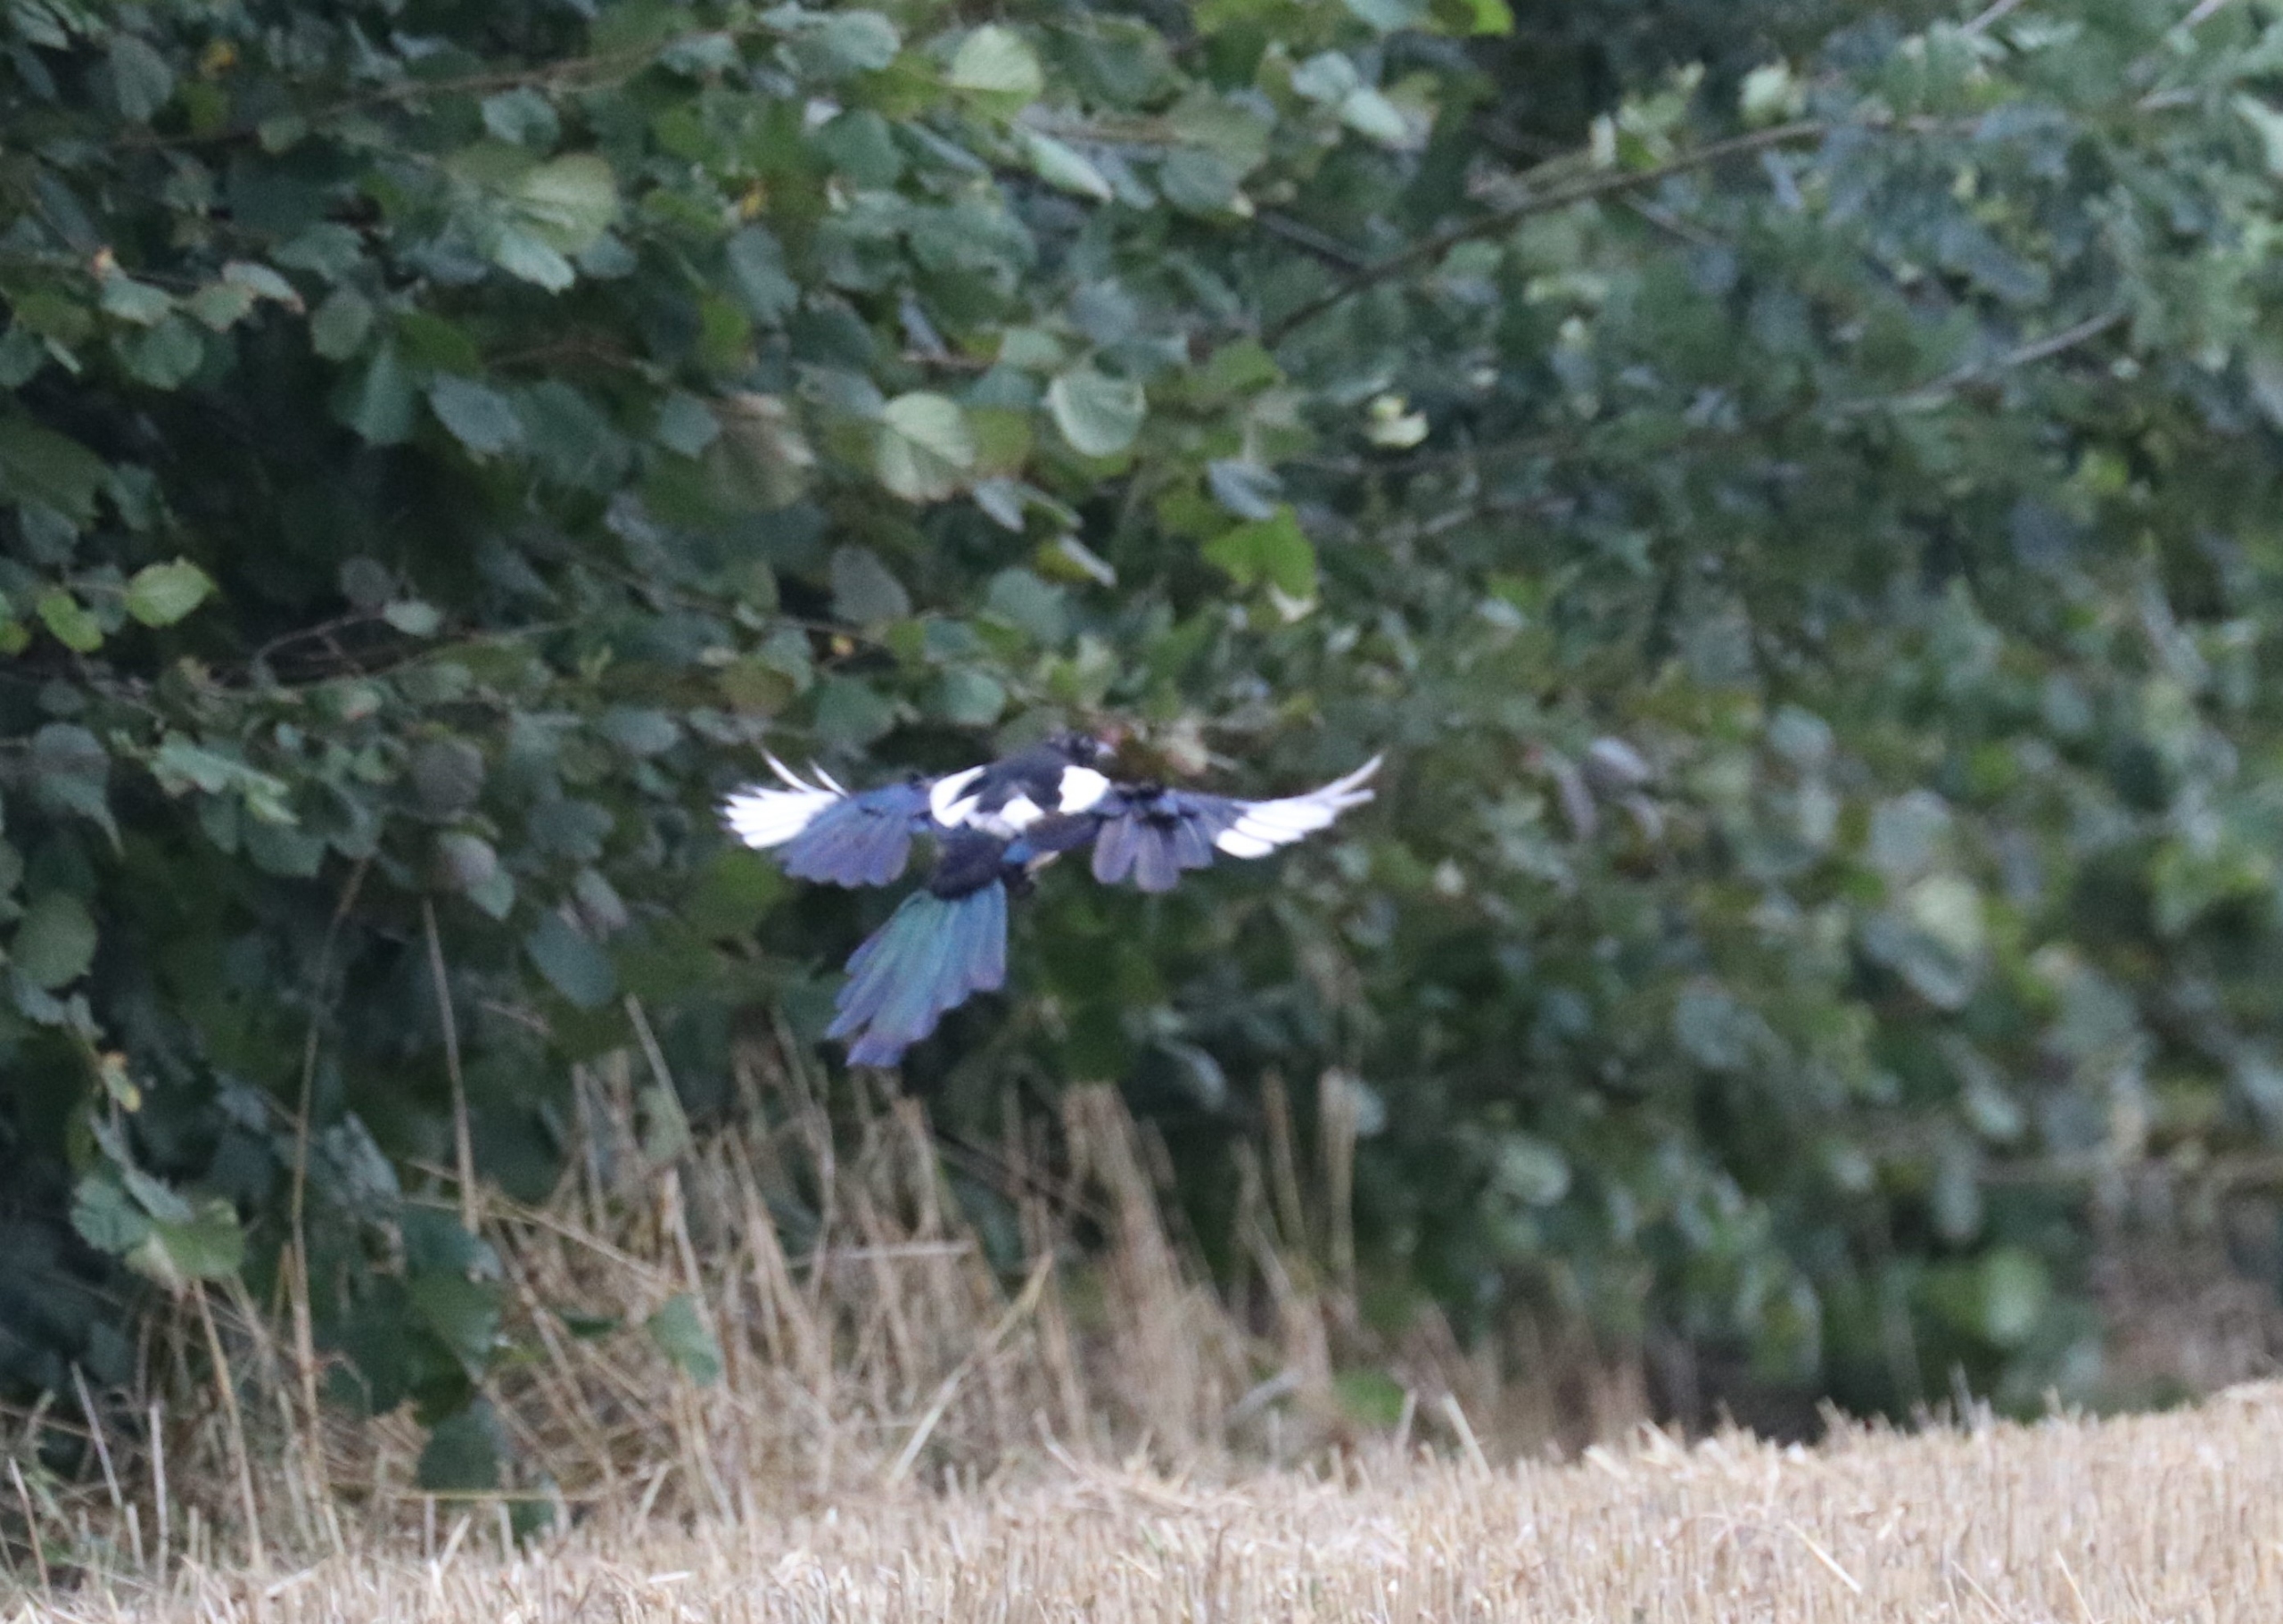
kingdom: Animalia
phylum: Chordata
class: Aves
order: Passeriformes
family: Corvidae
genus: Pica
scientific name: Pica pica
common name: Husskade
